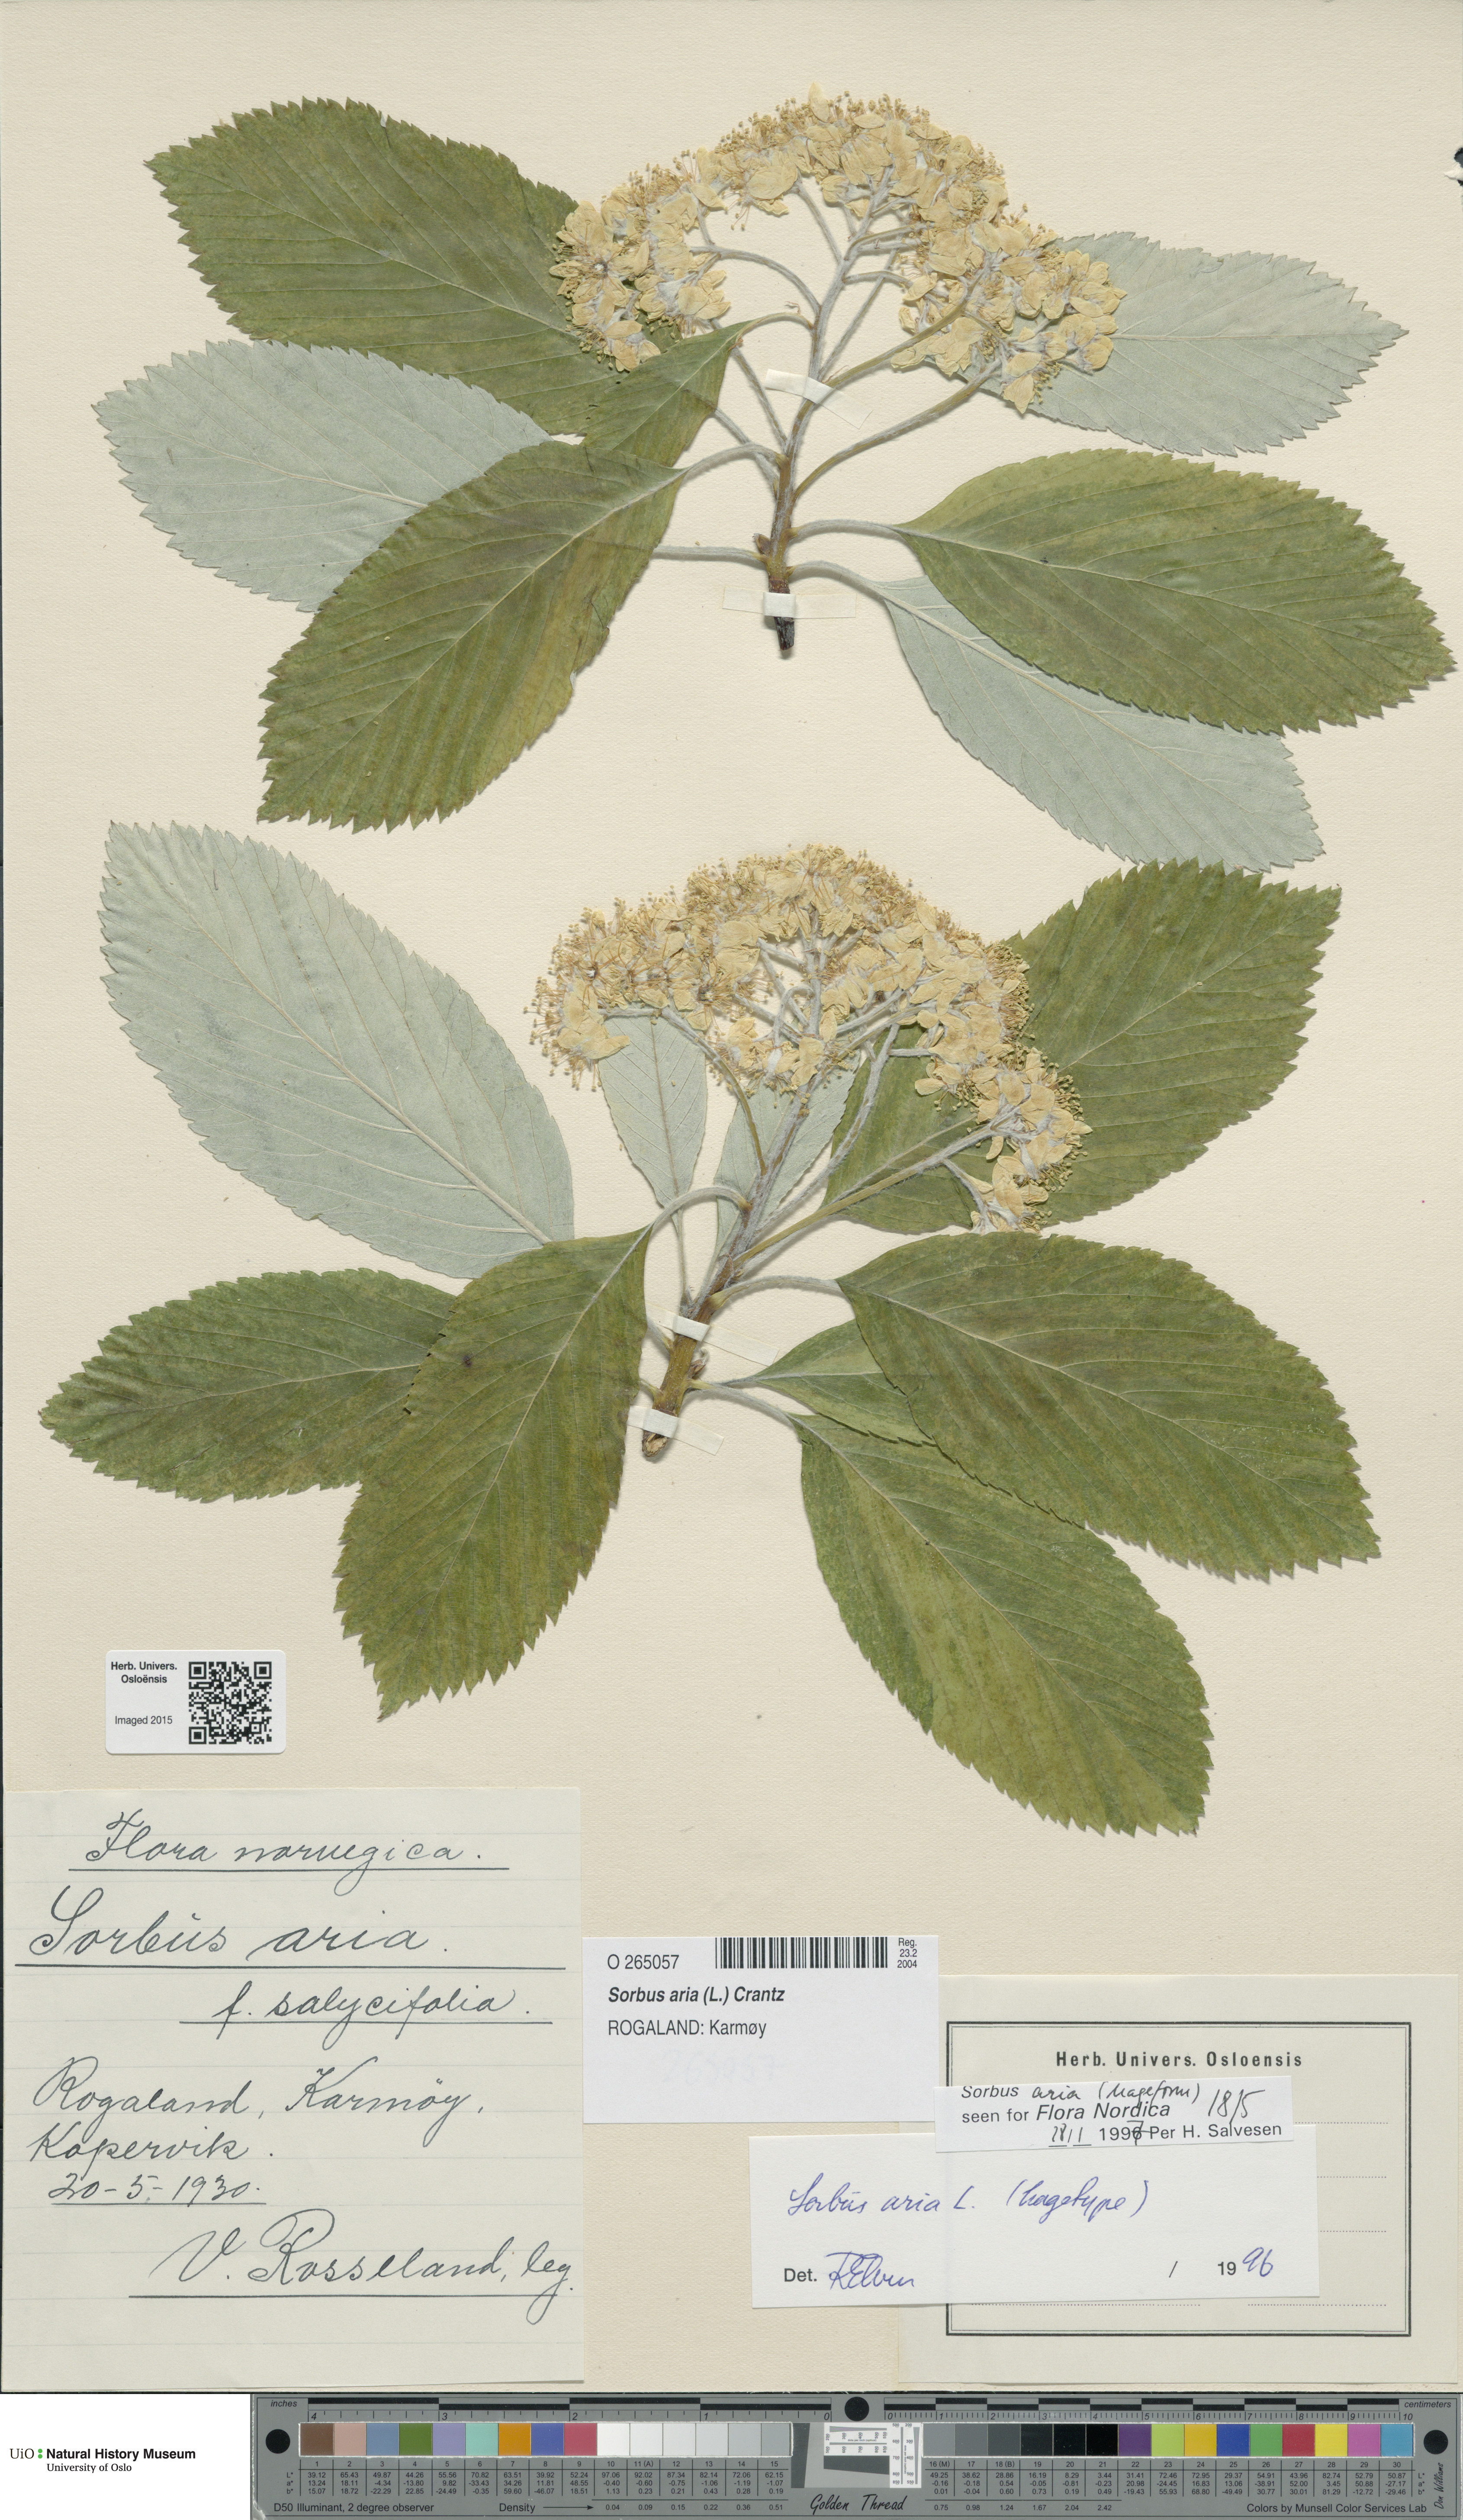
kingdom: Plantae
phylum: Tracheophyta
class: Magnoliopsida
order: Rosales
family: Rosaceae
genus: Aria
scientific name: Aria edulis
